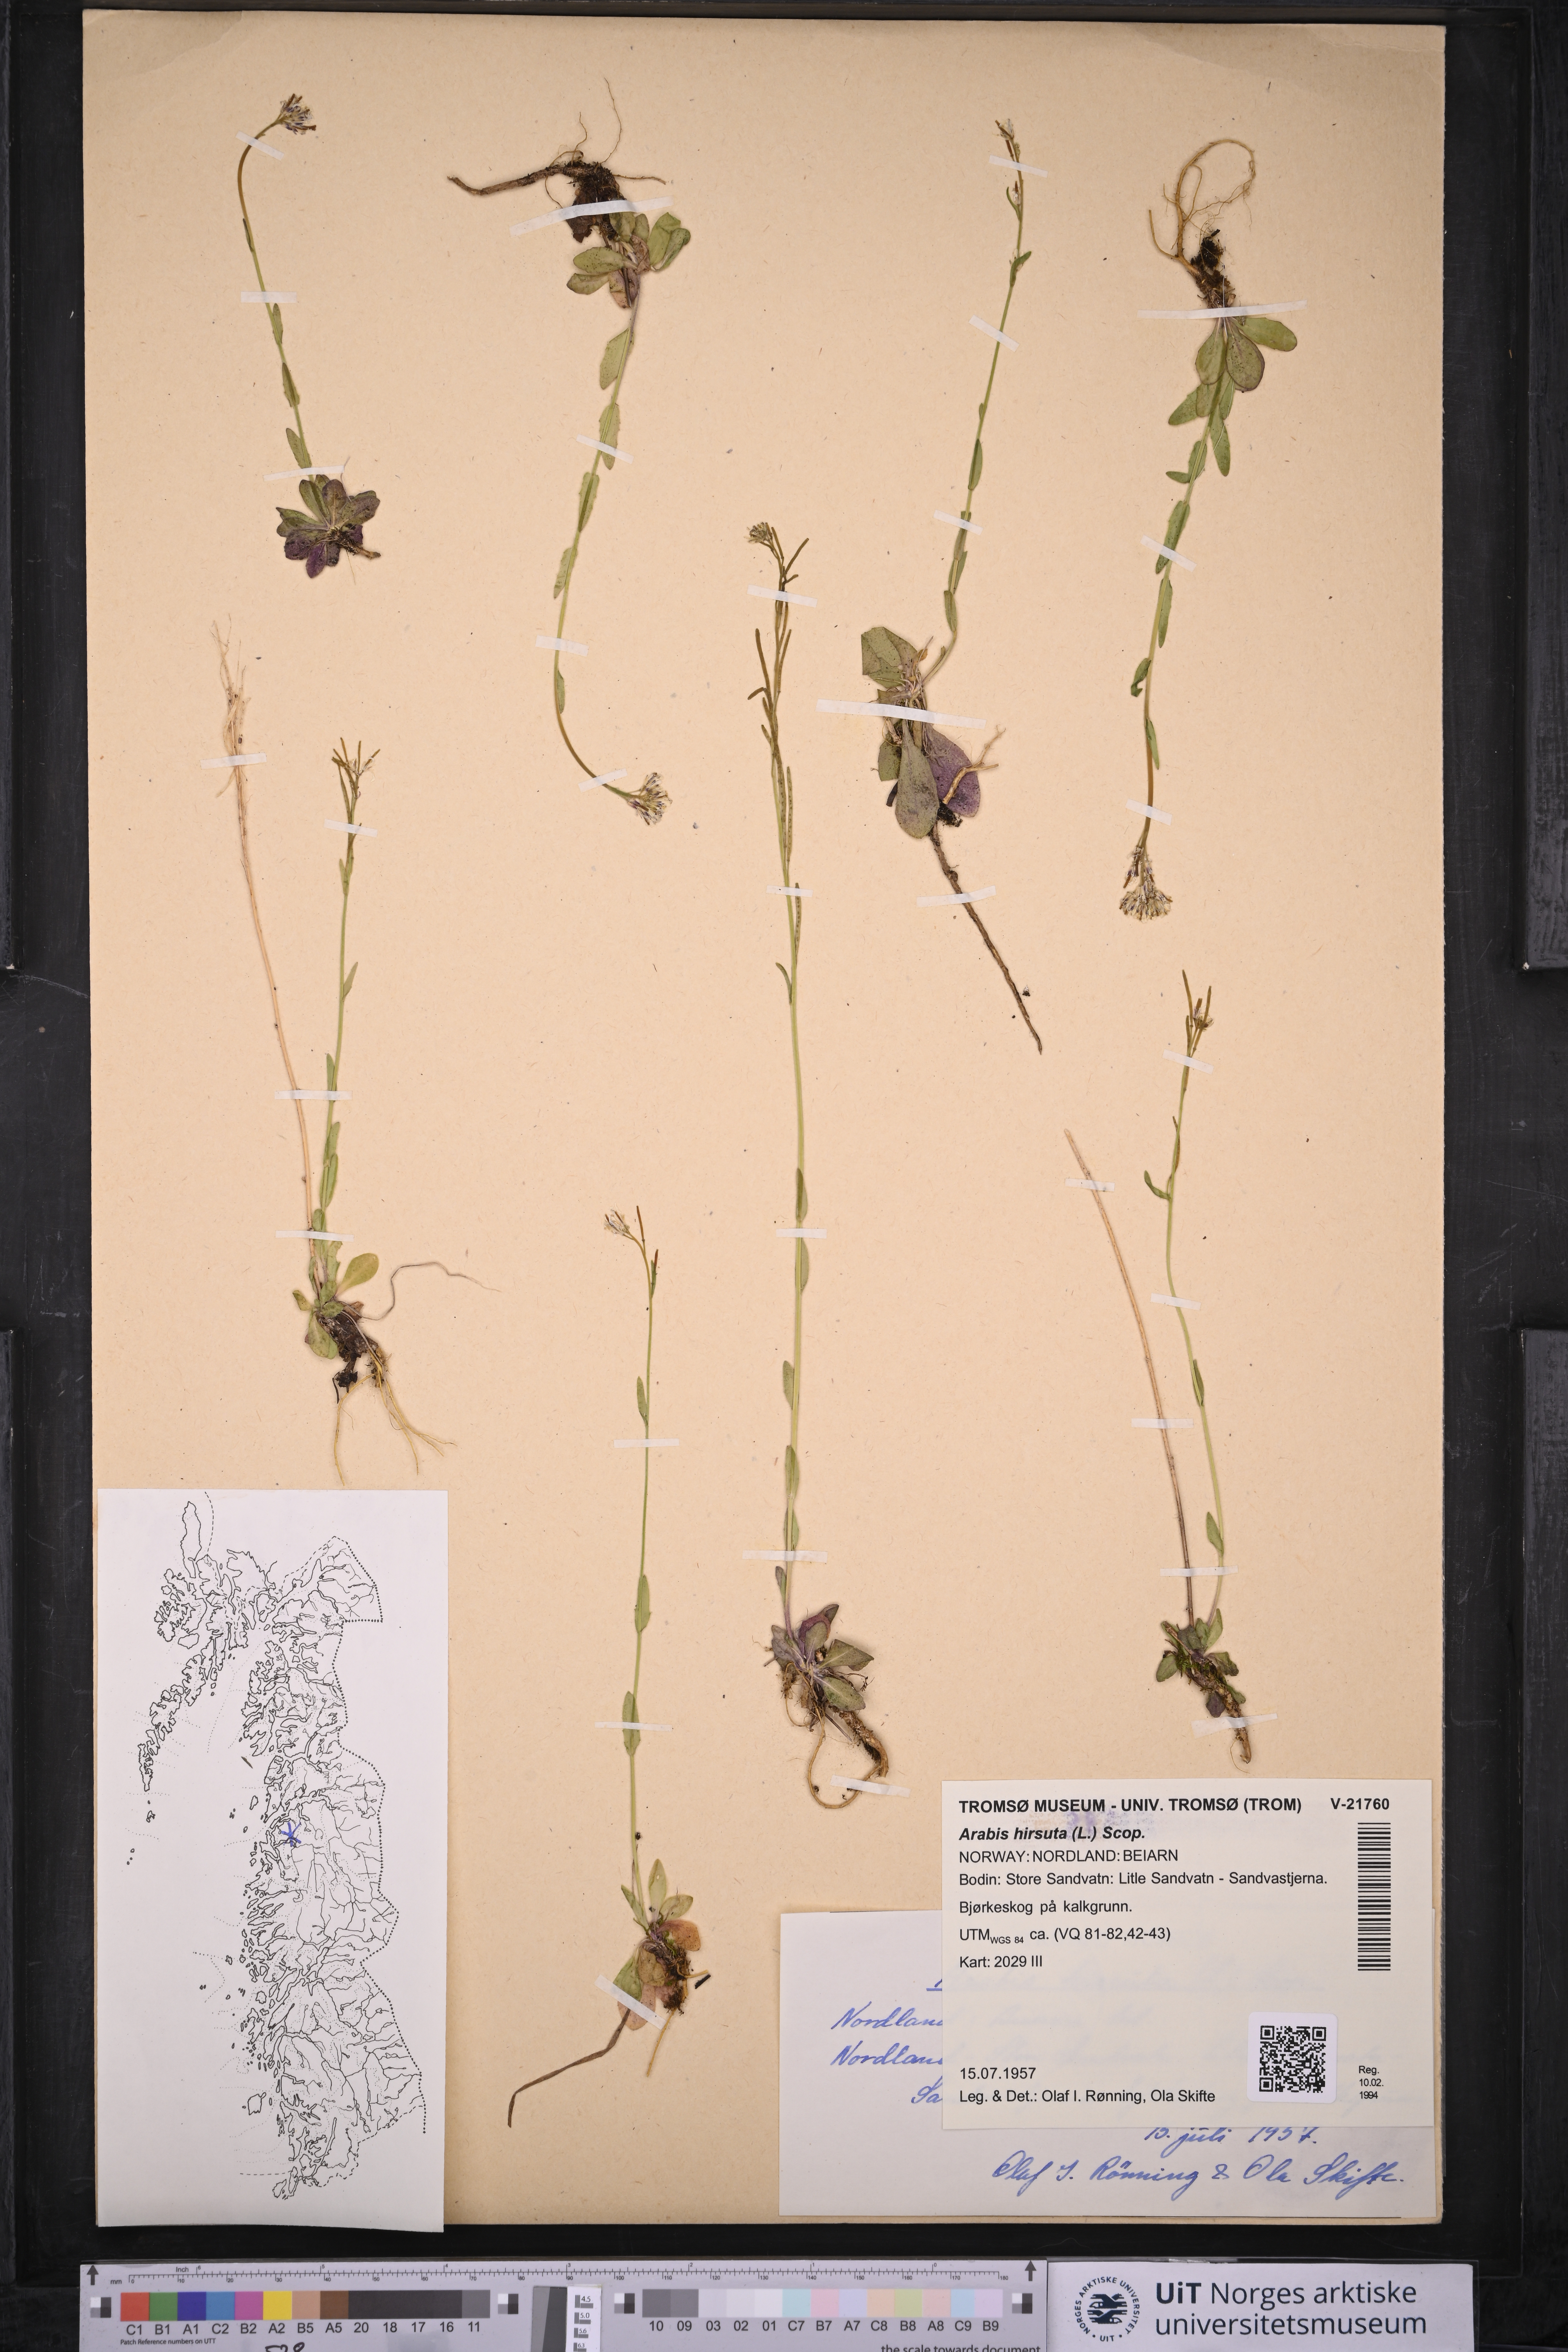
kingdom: Plantae
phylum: Tracheophyta
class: Magnoliopsida
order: Brassicales
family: Brassicaceae
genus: Arabis
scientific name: Arabis hirsuta
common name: Hairy rock-cress
